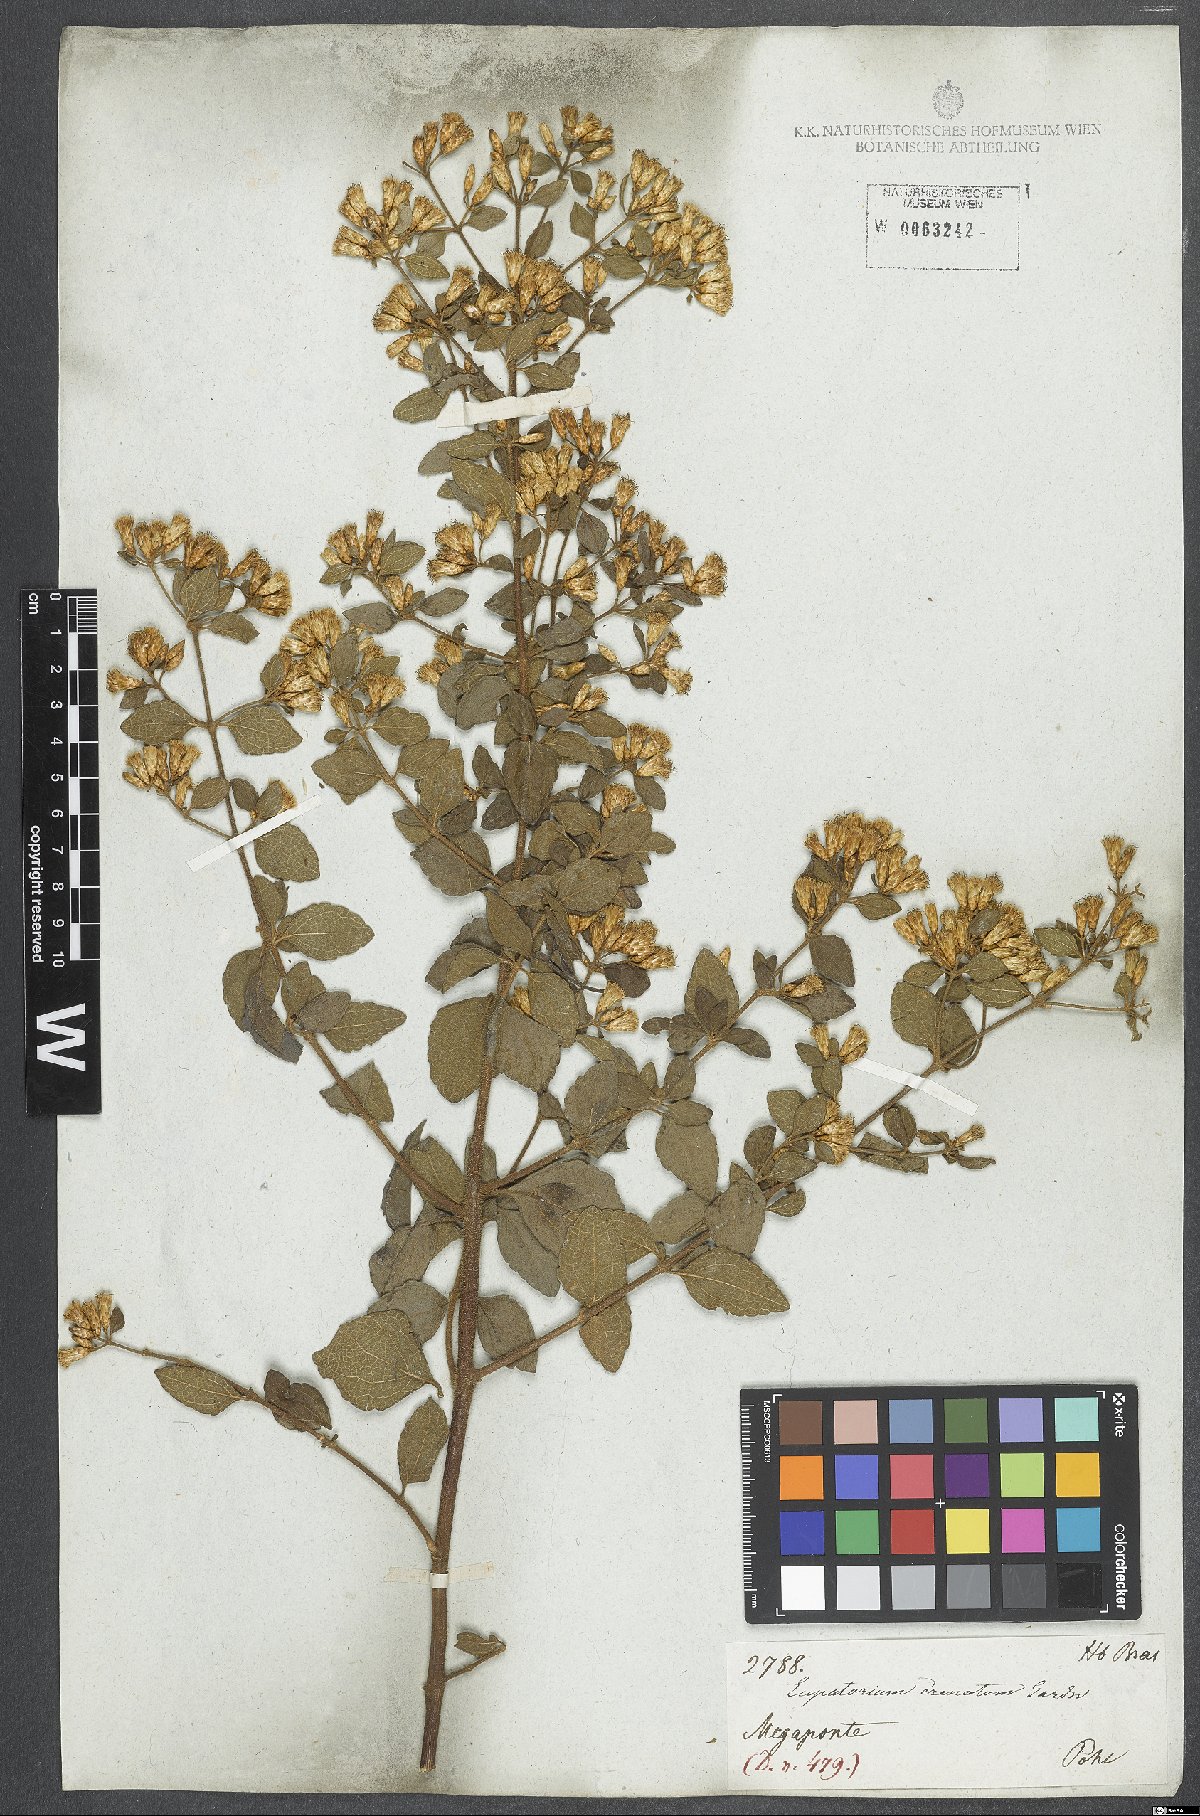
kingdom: Plantae
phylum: Tracheophyta
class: Magnoliopsida
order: Asterales
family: Asteraceae
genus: Chromolaena
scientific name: Chromolaena squalida
